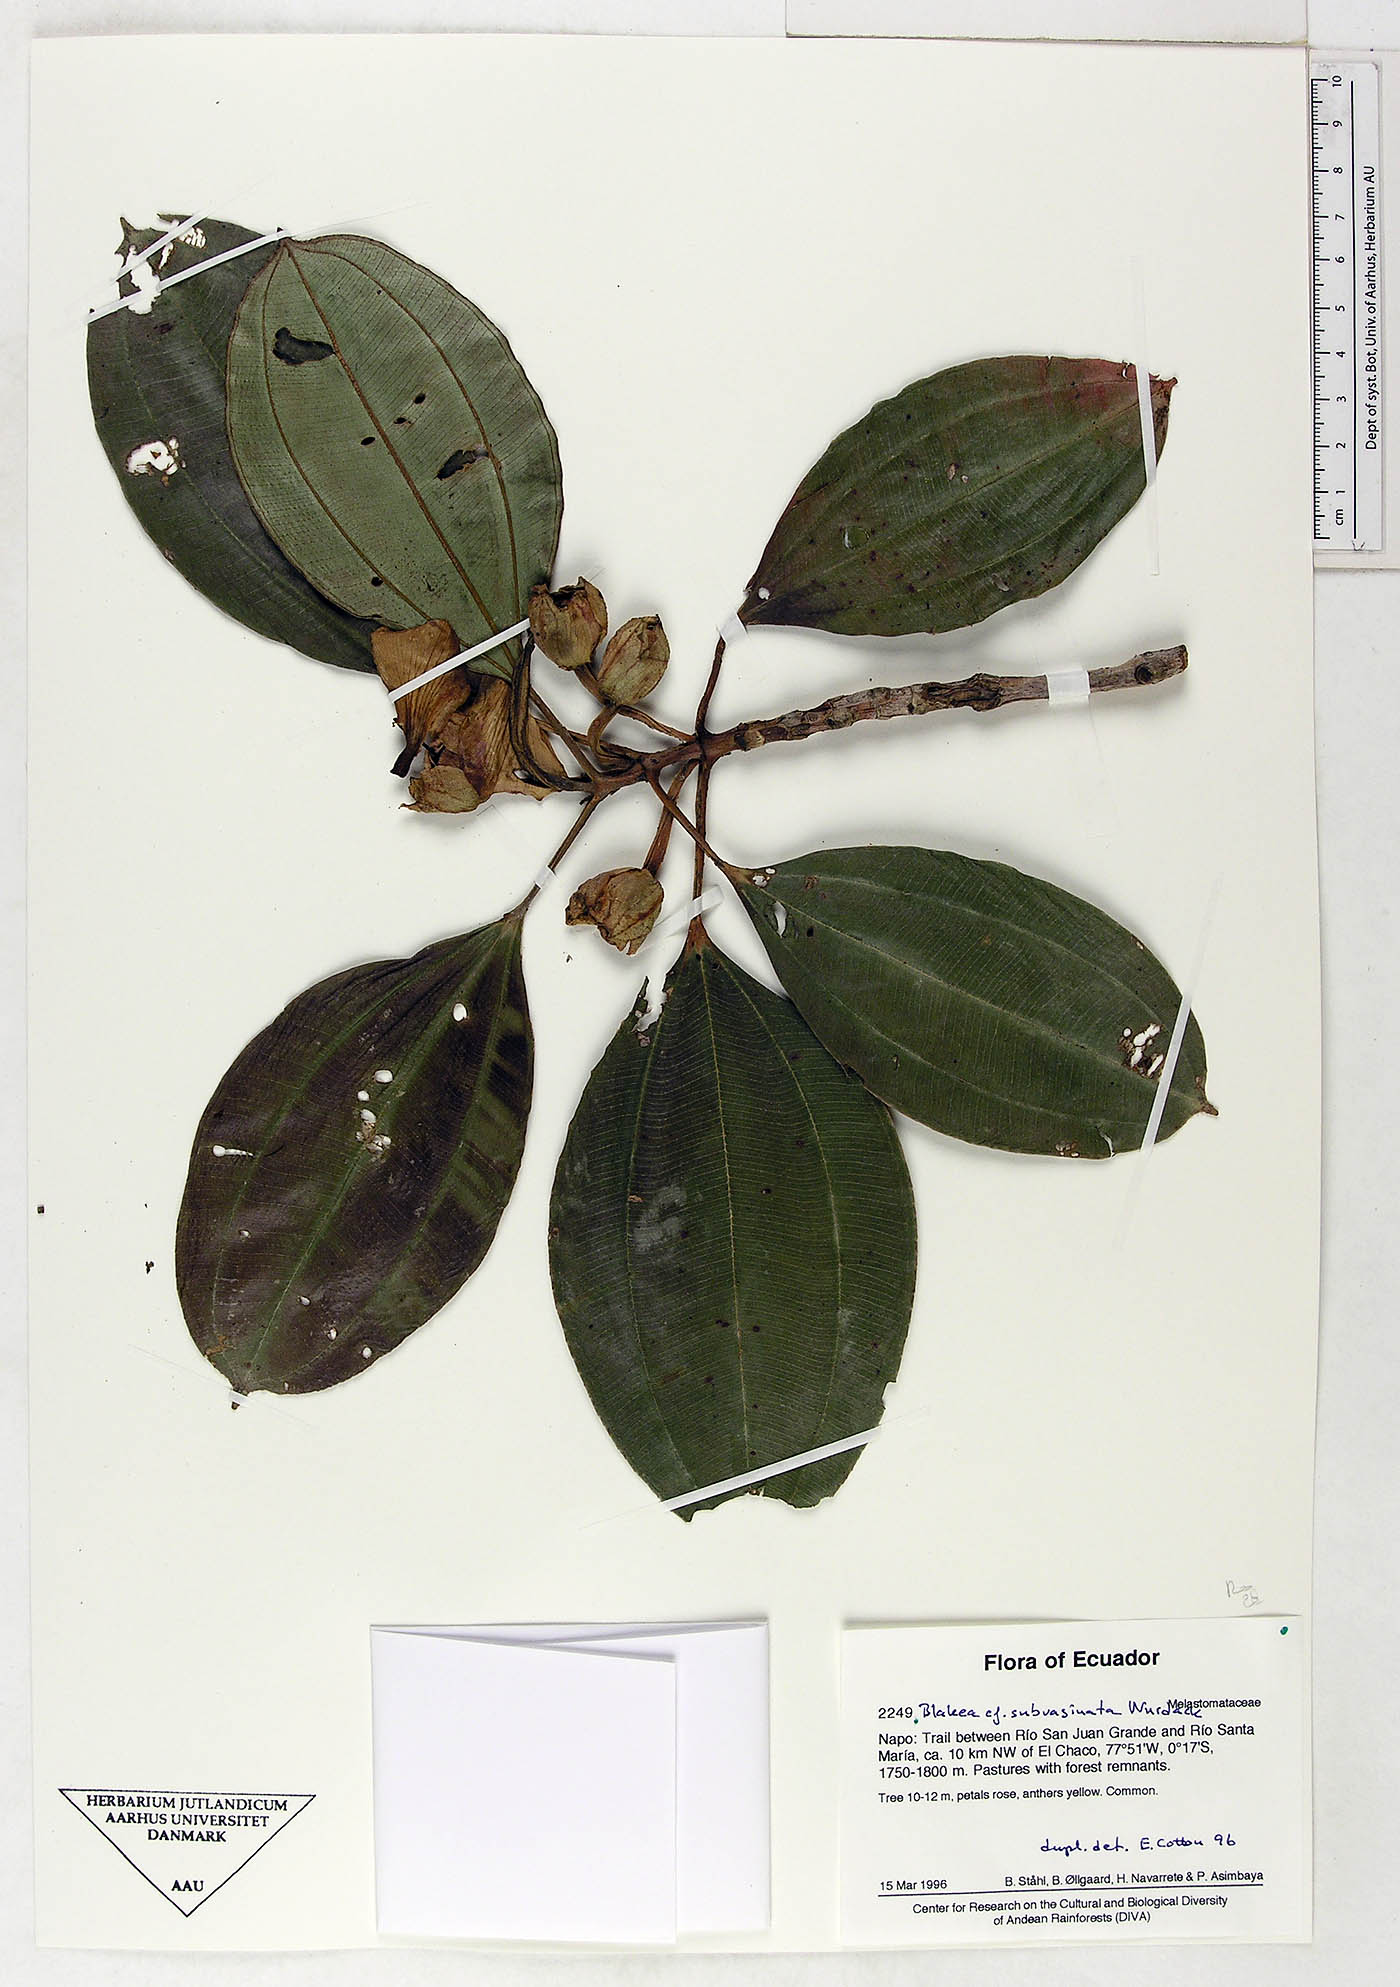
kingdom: Plantae
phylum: Tracheophyta
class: Magnoliopsida
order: Myrtales
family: Melastomataceae
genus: Blakea
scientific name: Blakea subvaginata
